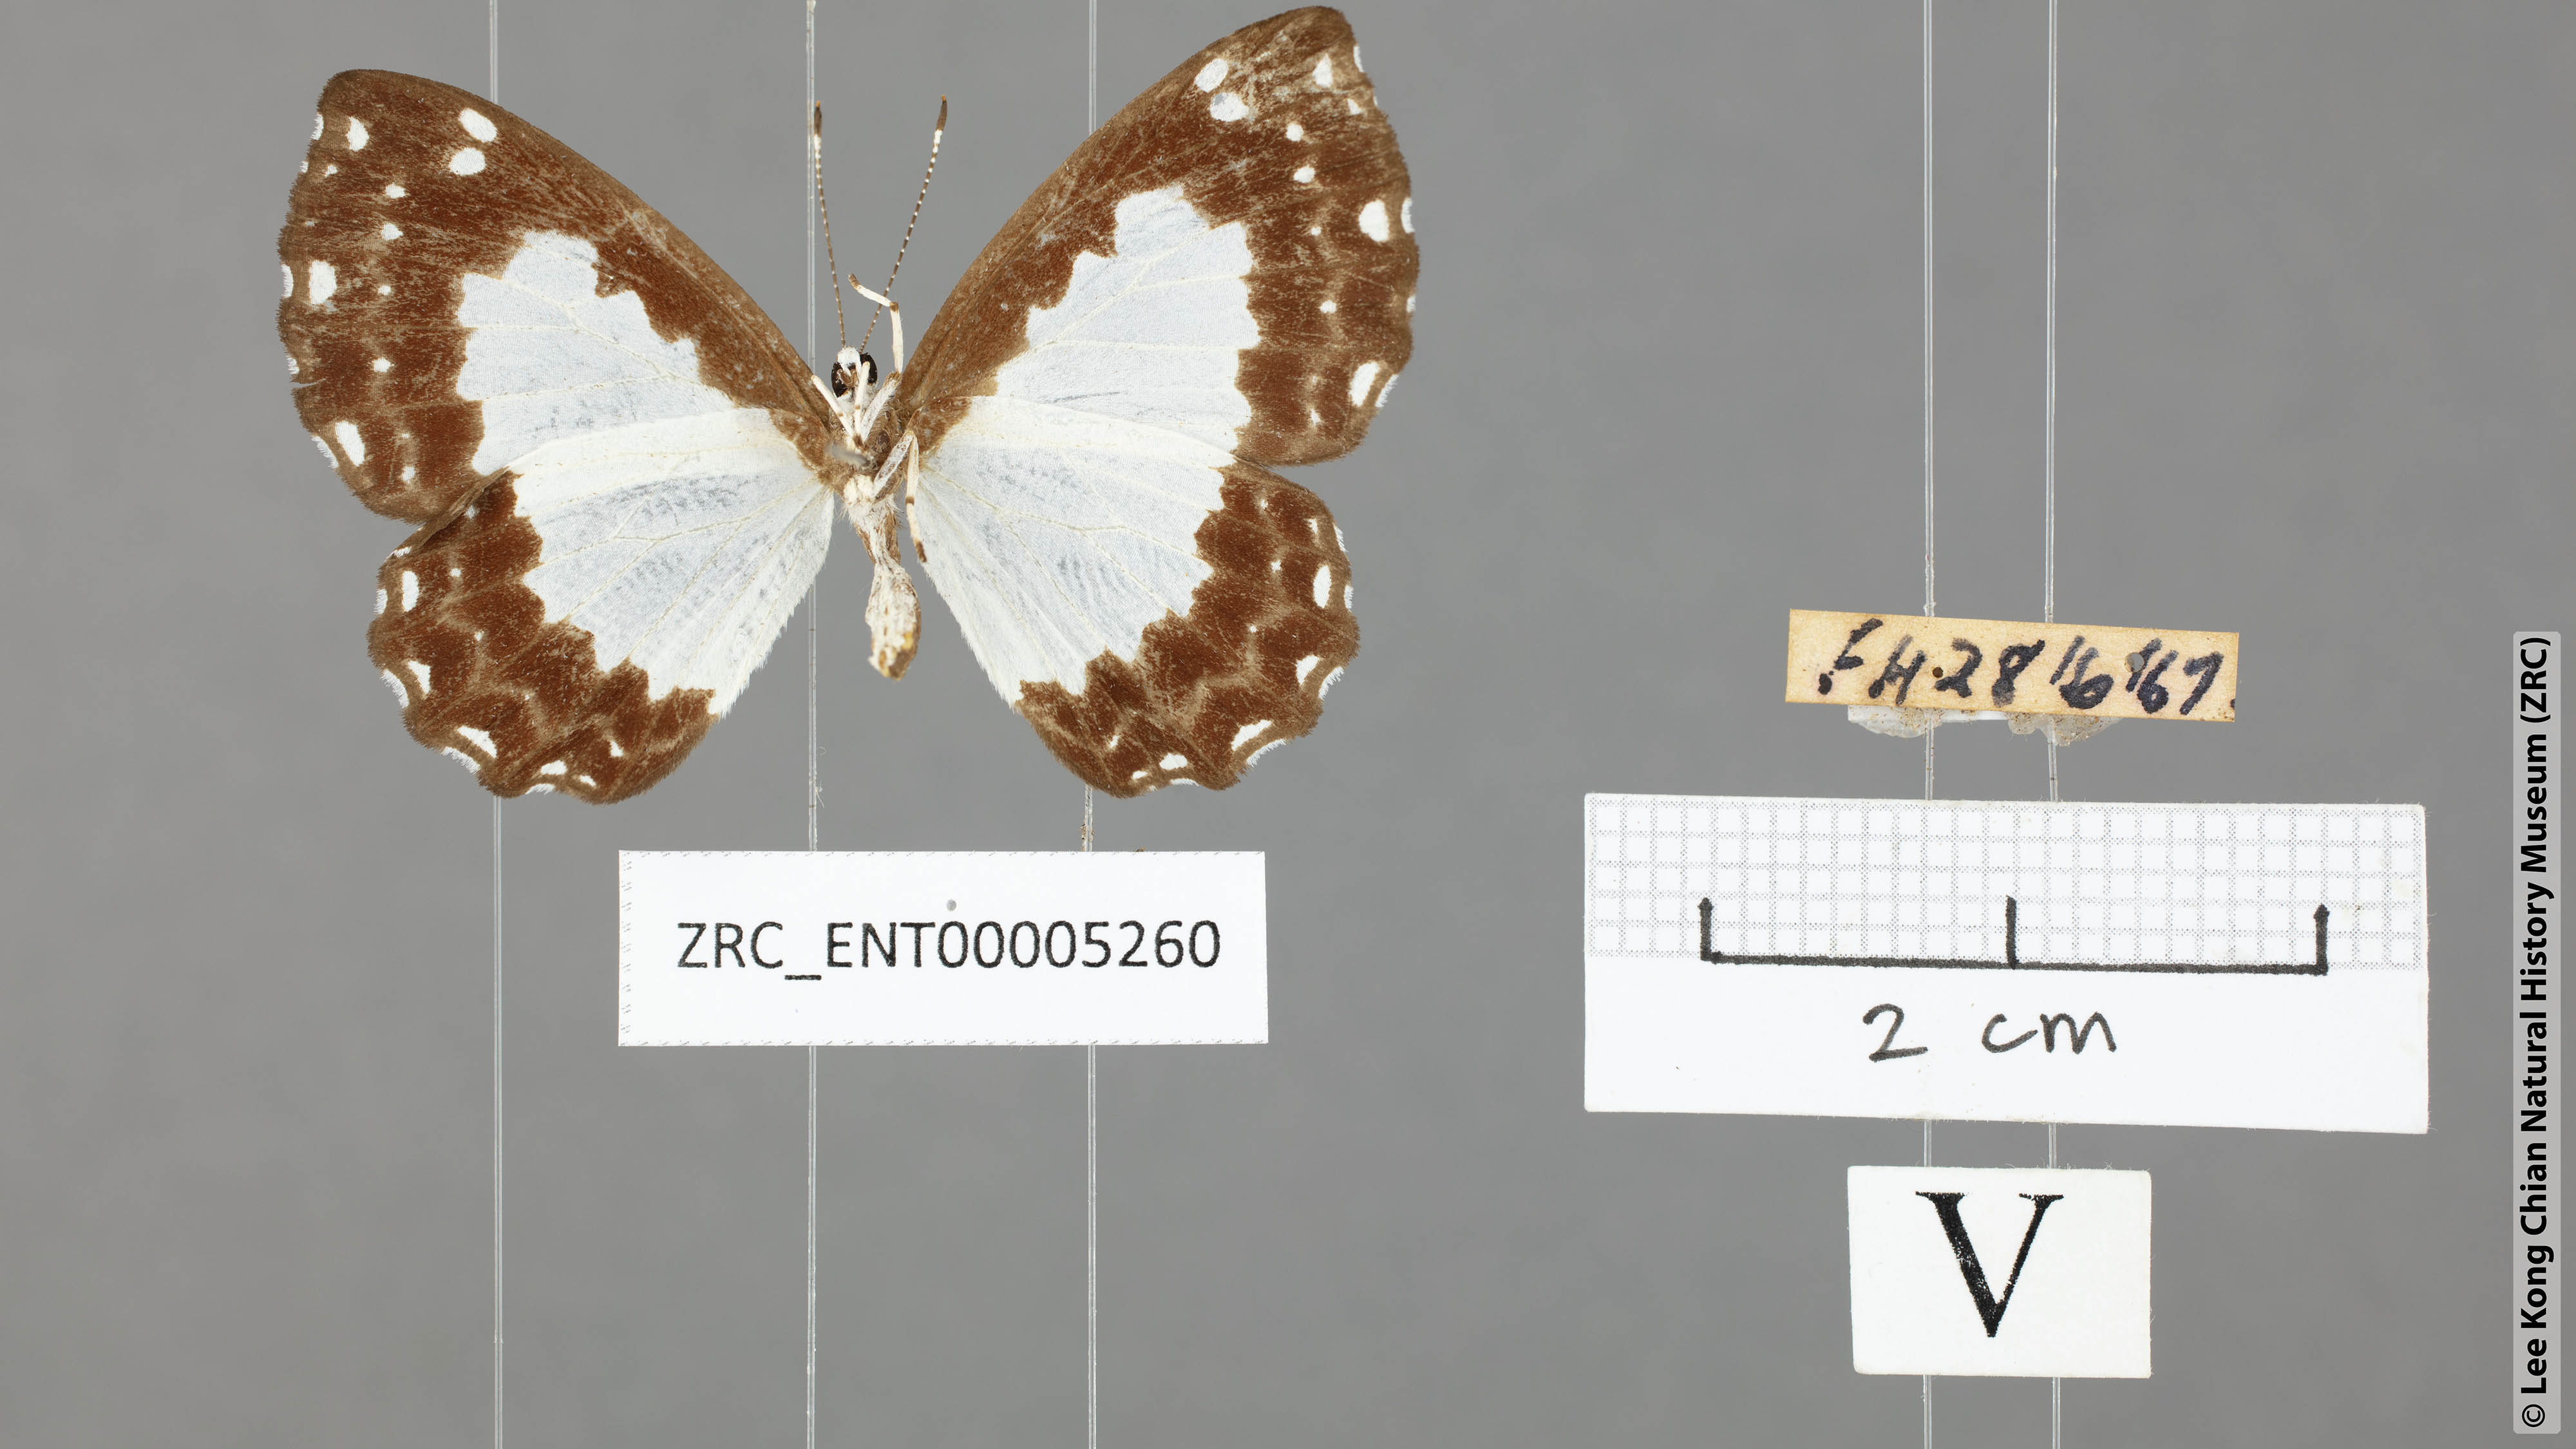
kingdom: Animalia
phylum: Arthropoda
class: Insecta
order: Lepidoptera
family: Riodinidae
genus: Stiboges
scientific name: Stiboges nymphidia
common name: Columbine
